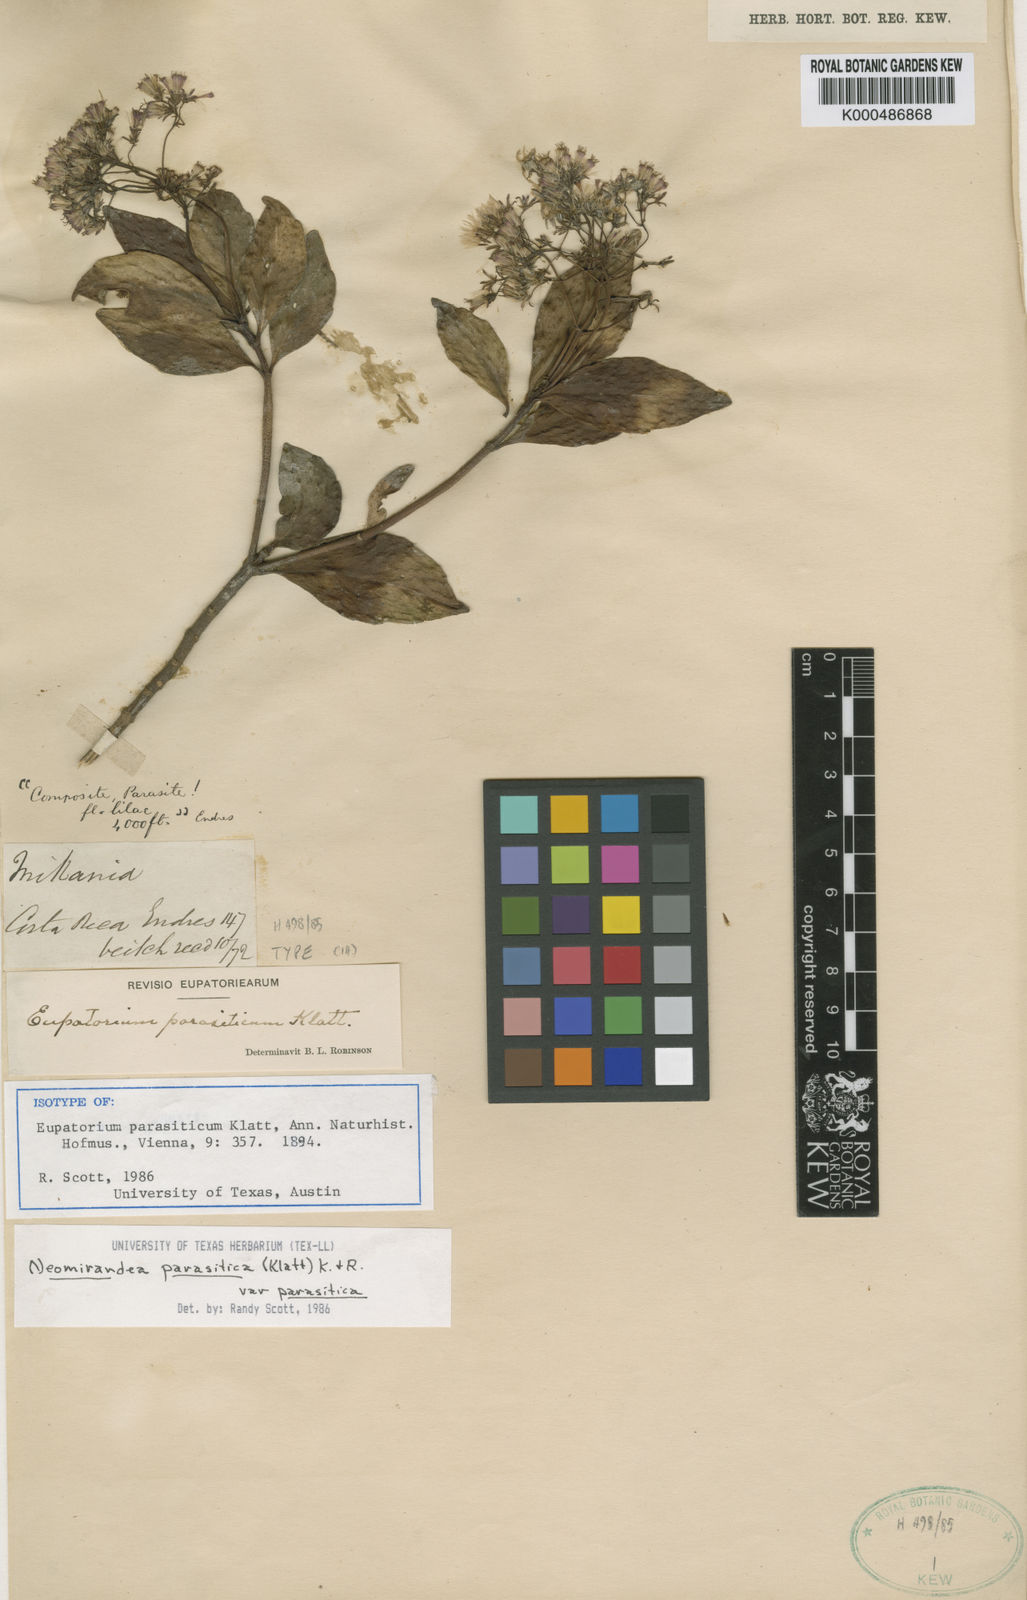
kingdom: Plantae
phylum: Tracheophyta
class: Magnoliopsida
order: Asterales
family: Asteraceae
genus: Neomirandea
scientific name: Neomirandea parasitica
